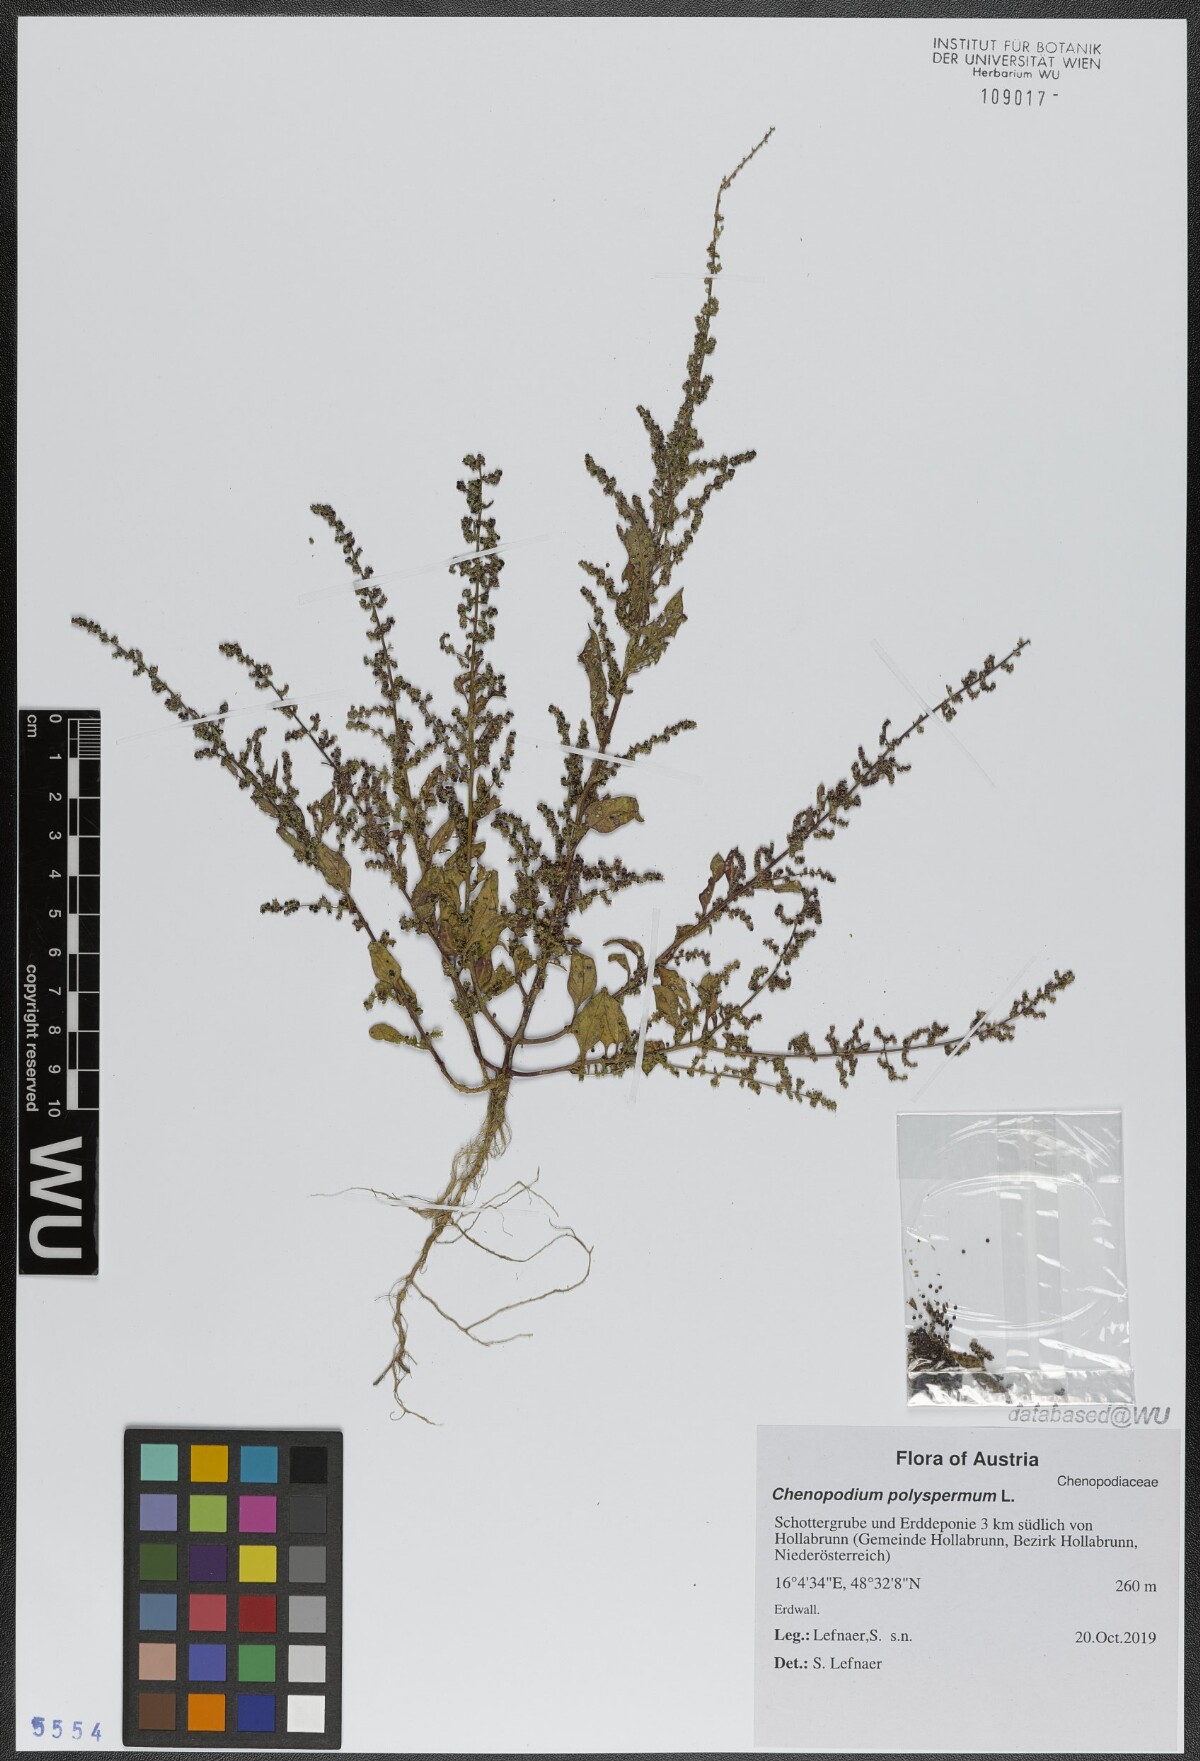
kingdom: Plantae
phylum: Tracheophyta
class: Magnoliopsida
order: Caryophyllales
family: Amaranthaceae
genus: Lipandra
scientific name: Lipandra polysperma
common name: Many-seed goosefoot
